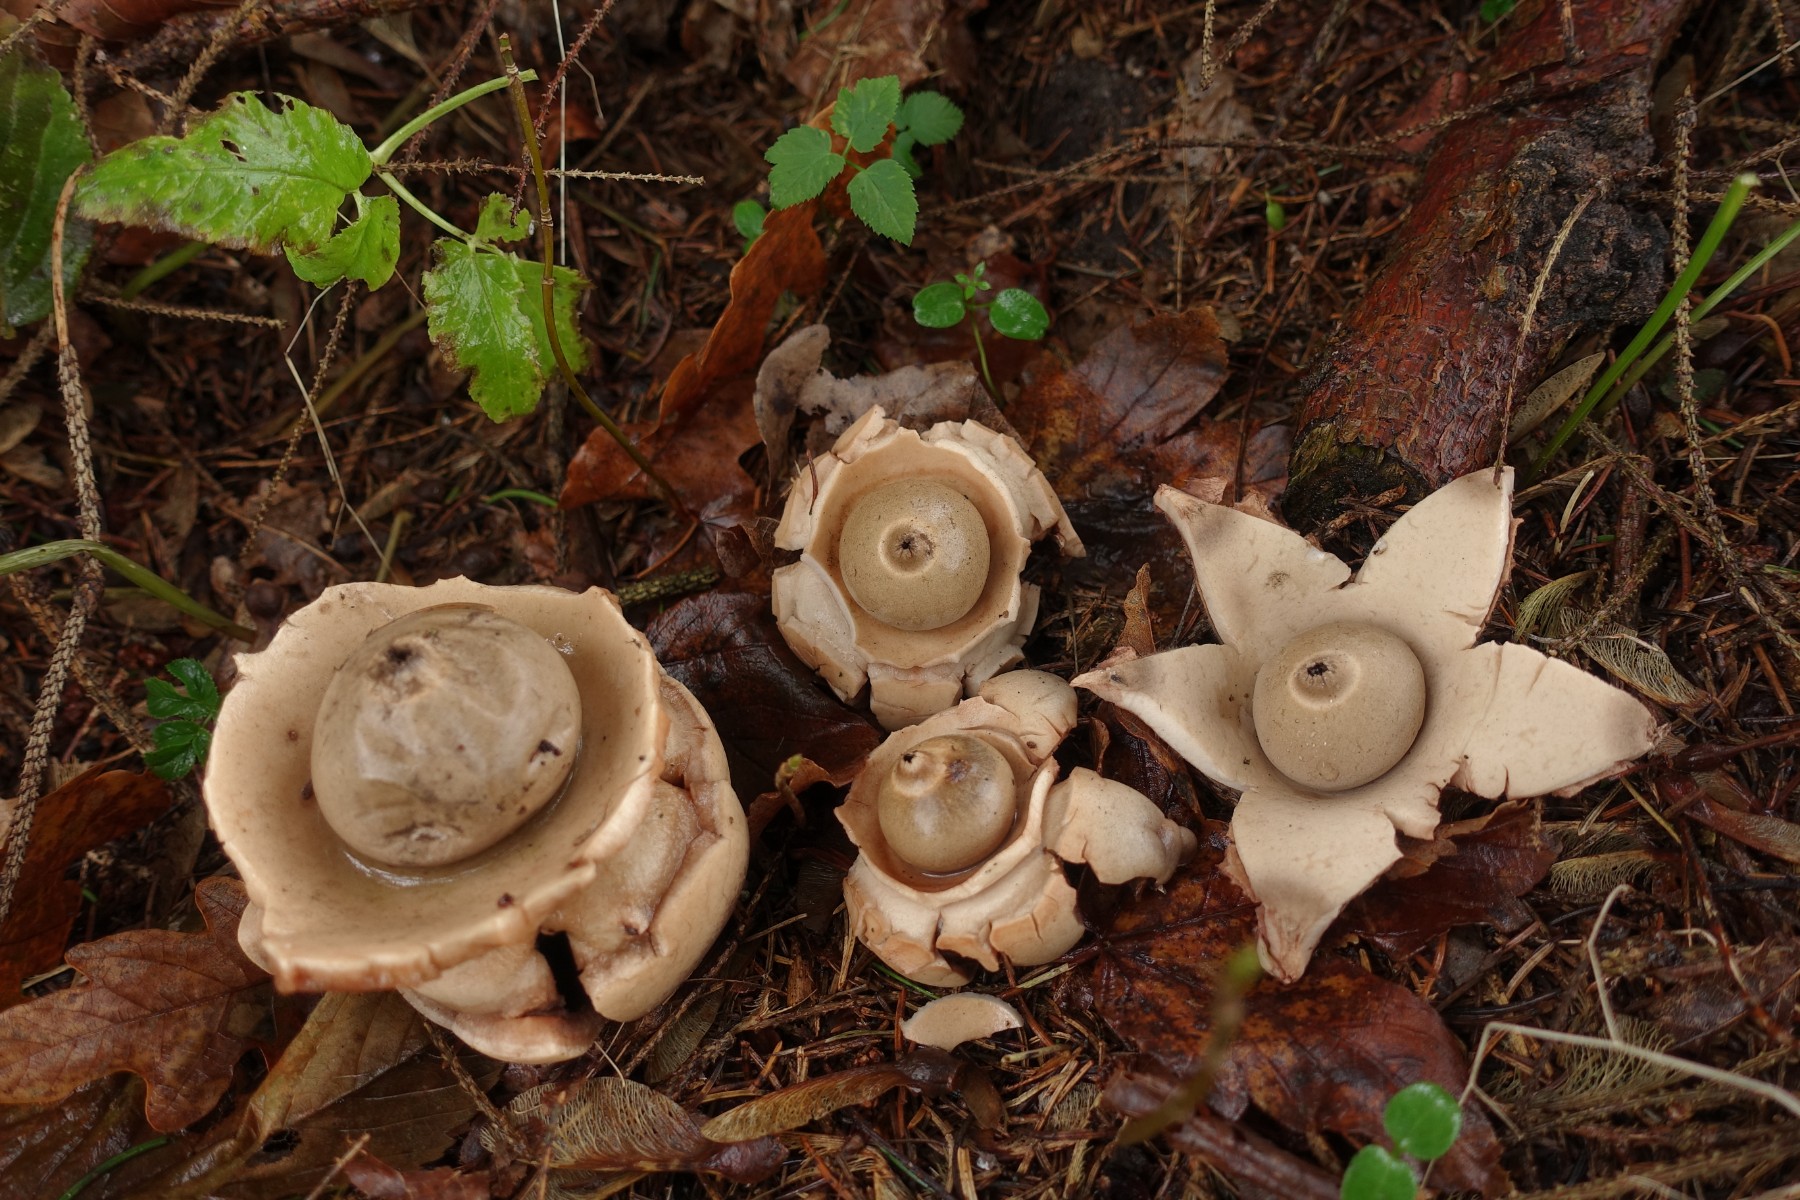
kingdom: Fungi
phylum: Basidiomycota
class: Agaricomycetes
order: Geastrales
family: Geastraceae
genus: Geastrum
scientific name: Geastrum michelianum
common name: kødet stjernebold
